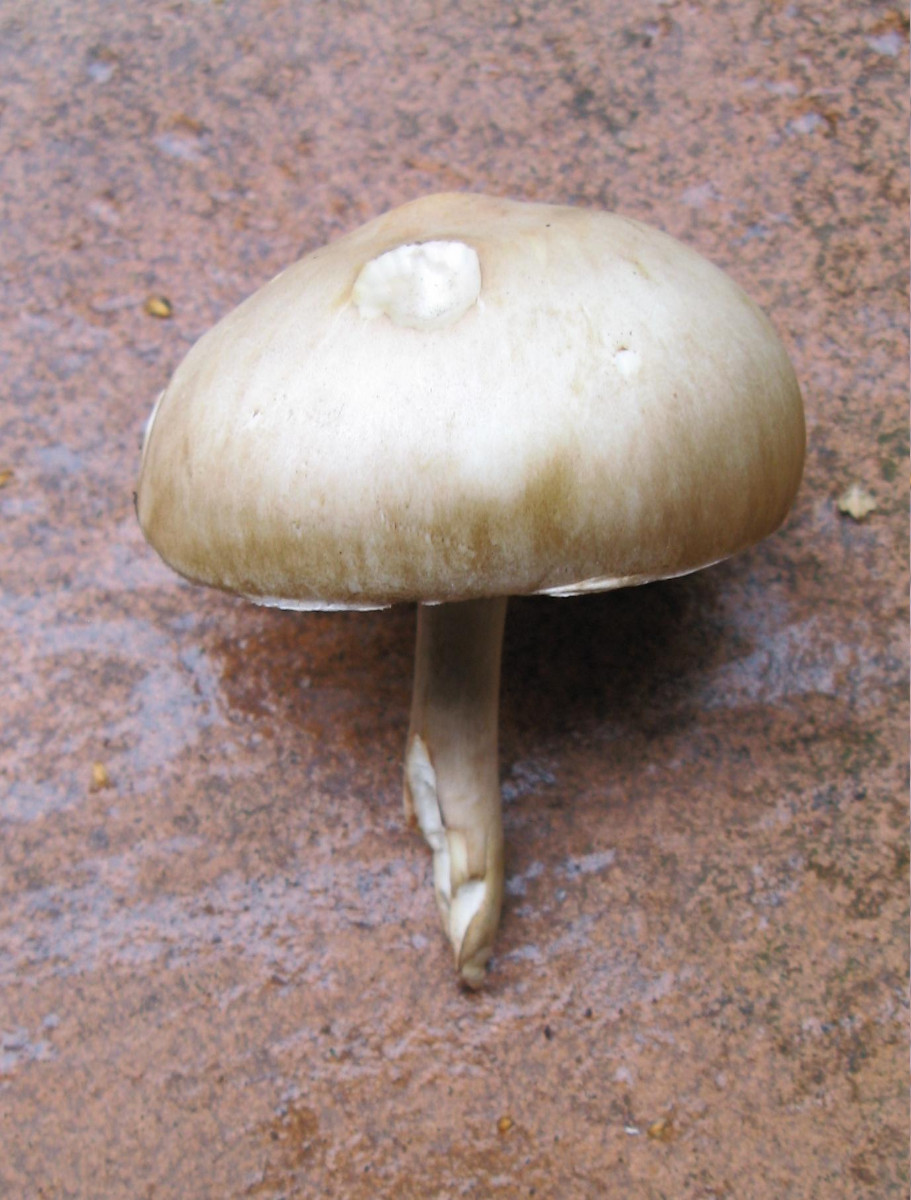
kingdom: Fungi
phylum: Basidiomycota
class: Agaricomycetes
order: Agaricales
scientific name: Agaricales
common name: champignonordenen
